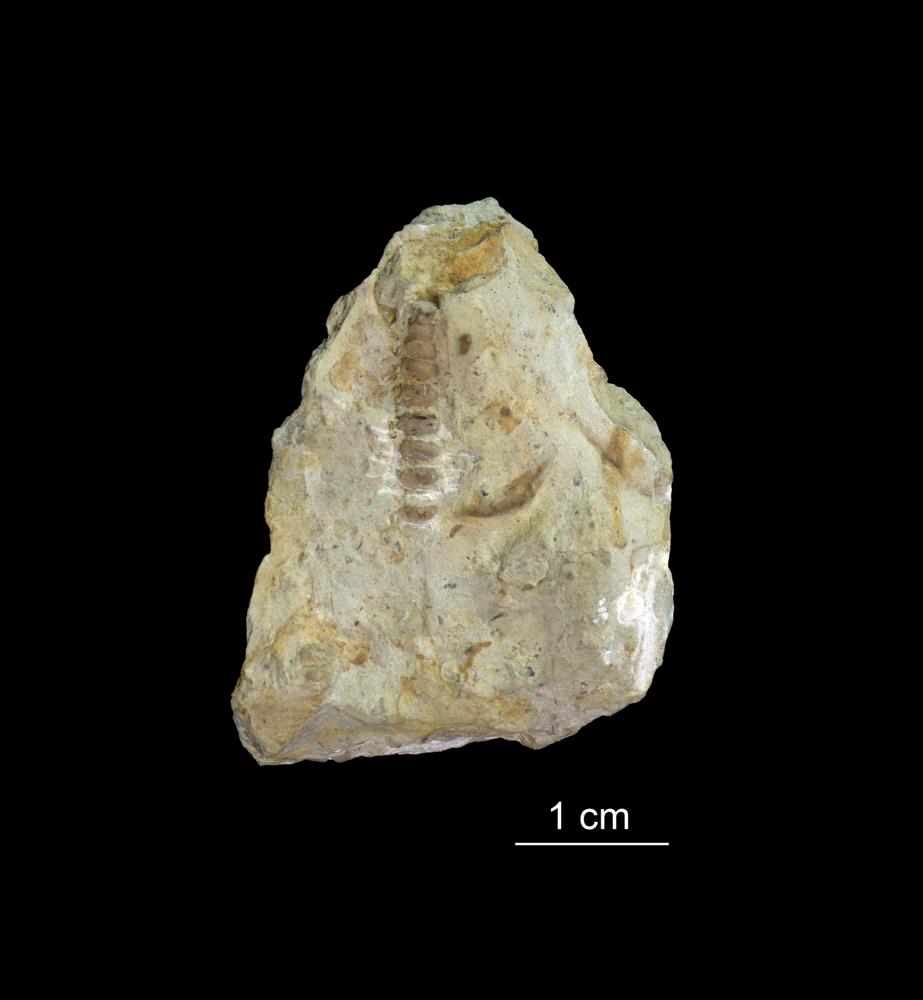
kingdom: Animalia
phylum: Mollusca
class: Cricoconarida
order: Tentaculitida
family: Tentaculitidae
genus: Tentaculites
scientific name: Tentaculites
